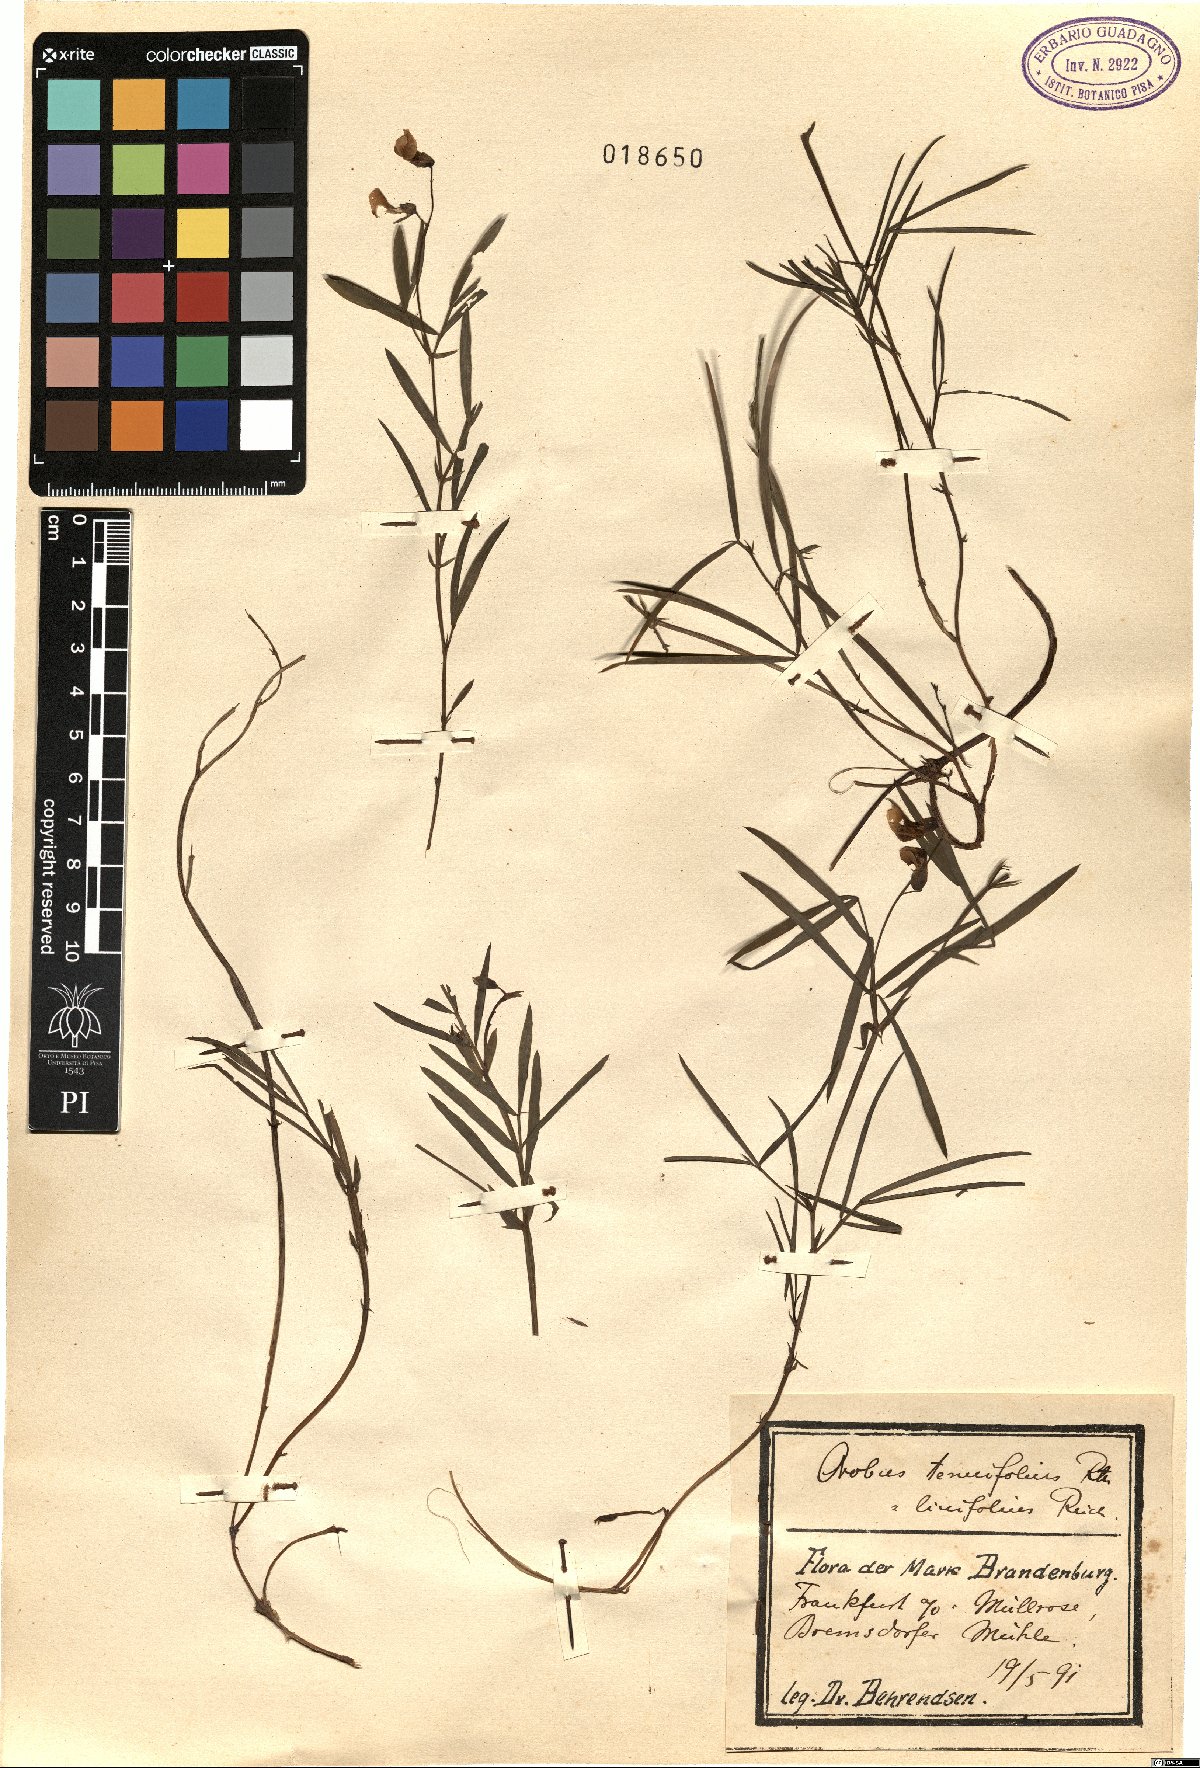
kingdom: Plantae
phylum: Tracheophyta
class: Magnoliopsida
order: Fabales
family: Fabaceae
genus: Lathyrus
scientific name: Lathyrus linifolius
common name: Bitter-vetch
